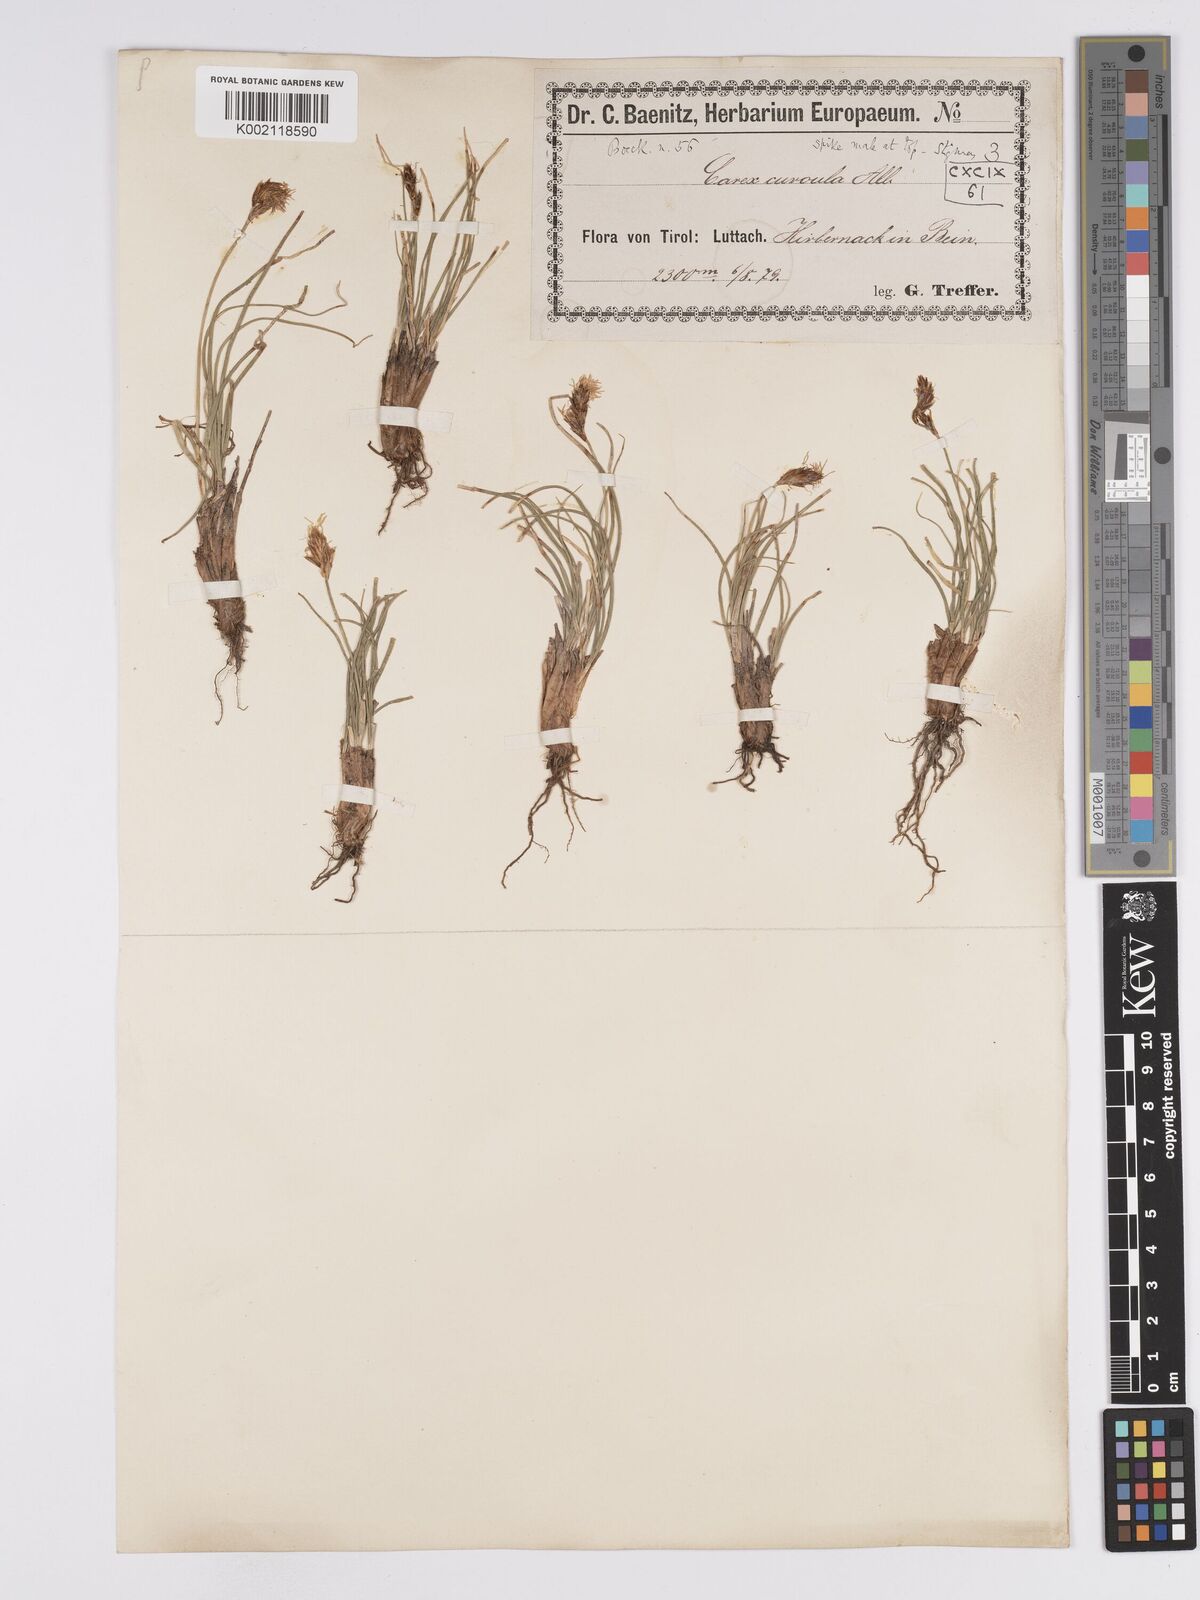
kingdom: Plantae
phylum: Tracheophyta
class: Liliopsida
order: Poales
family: Cyperaceae
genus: Carex
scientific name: Carex curvula
